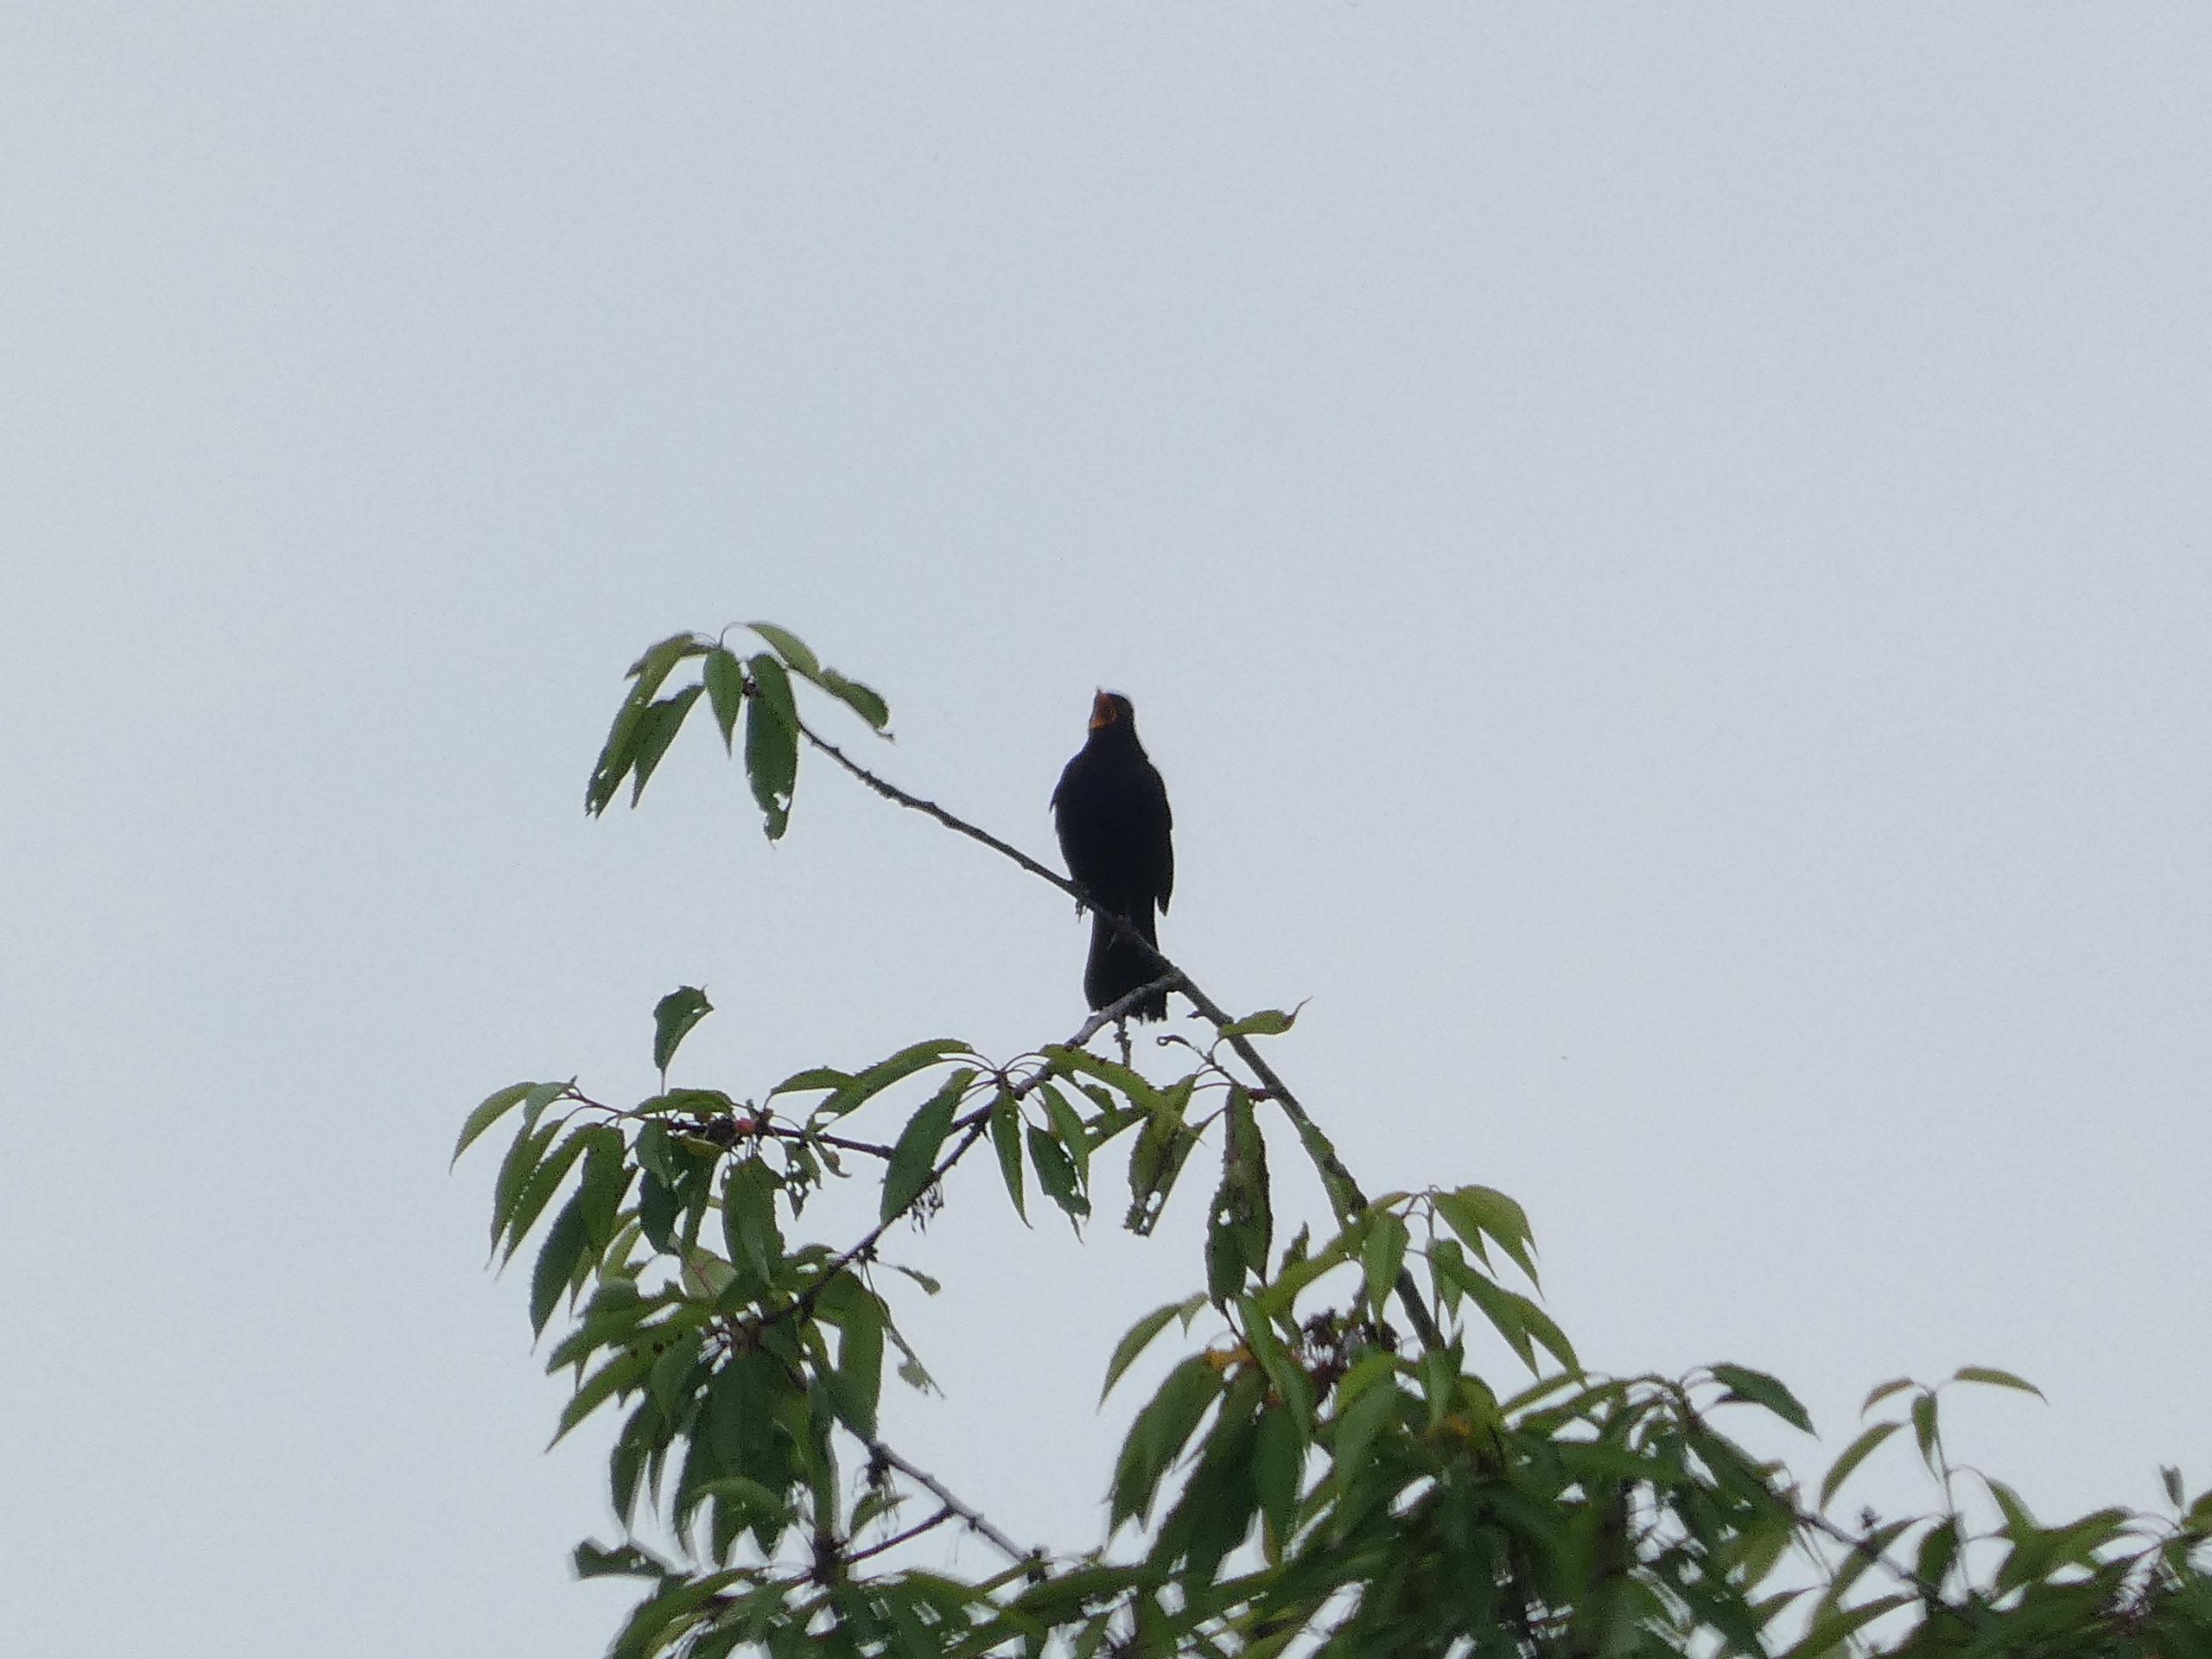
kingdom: Animalia
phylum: Chordata
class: Aves
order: Passeriformes
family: Turdidae
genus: Turdus
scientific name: Turdus merula
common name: Solsort
